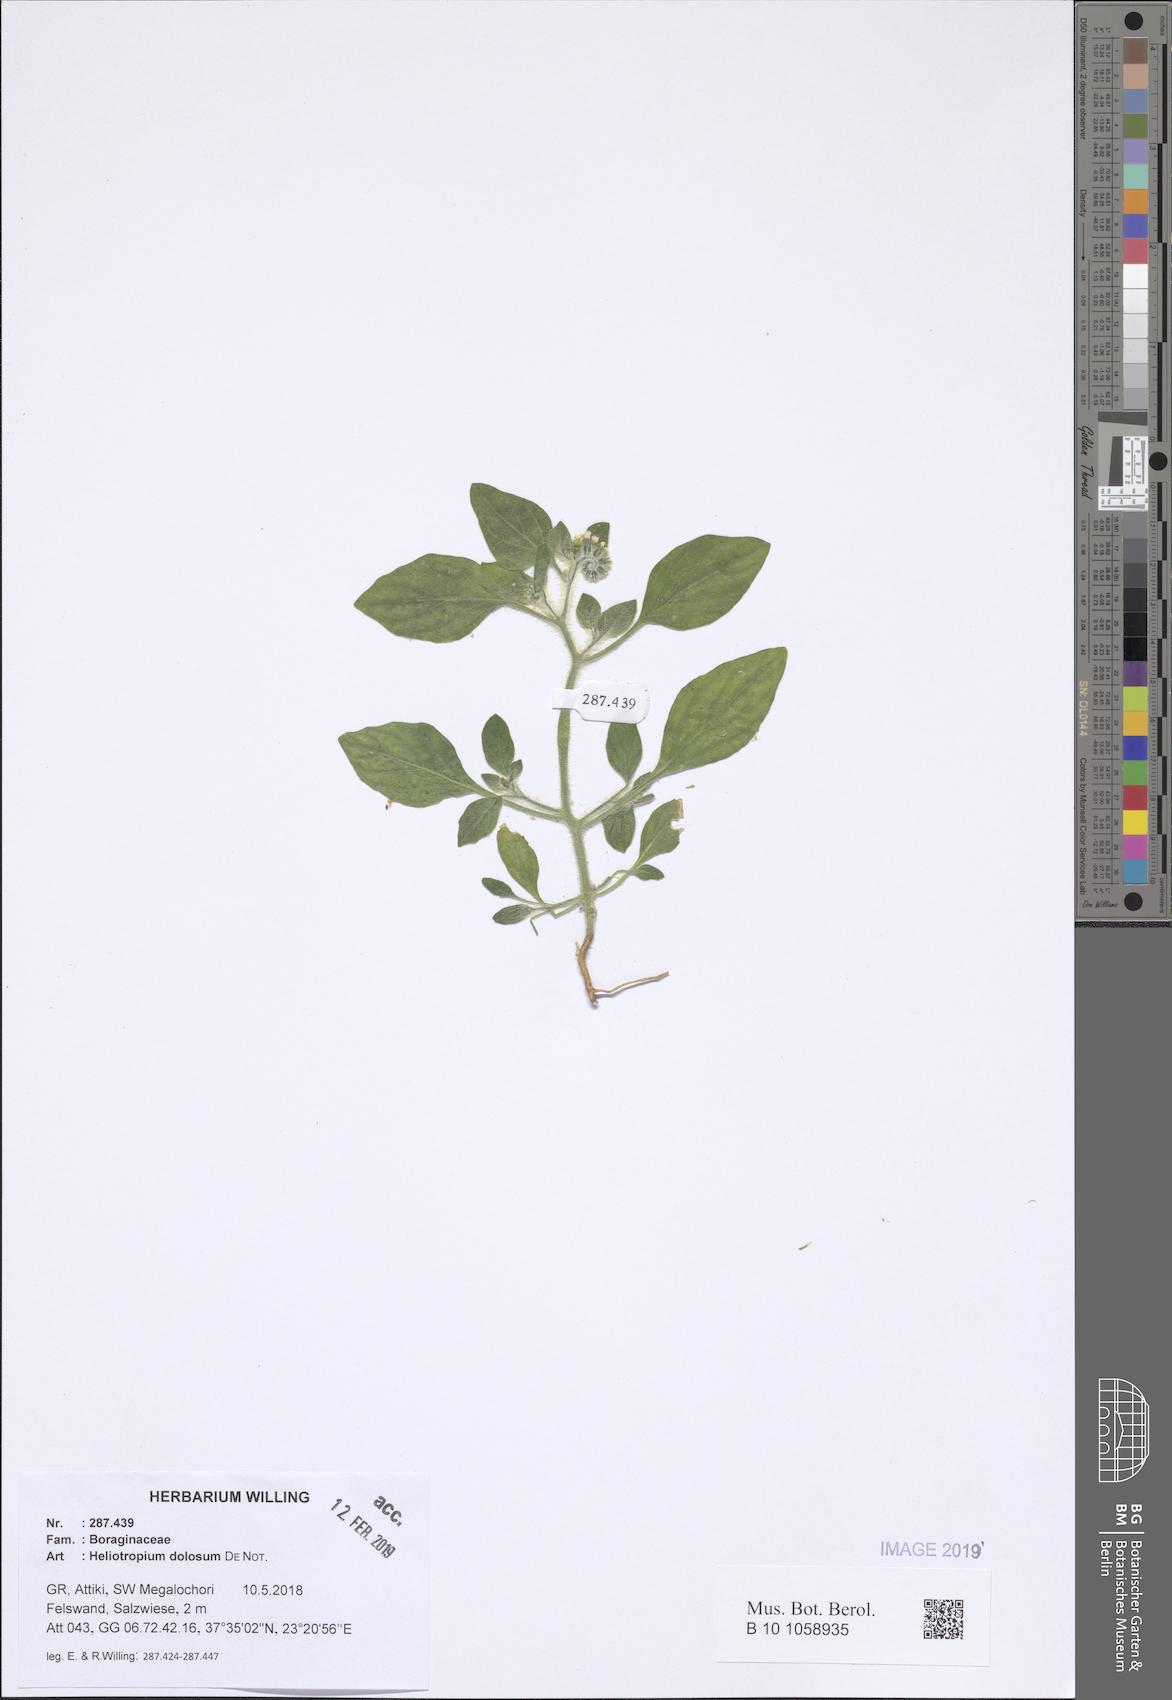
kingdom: Plantae
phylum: Tracheophyta
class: Magnoliopsida
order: Boraginales
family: Heliotropiaceae
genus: Heliotropium
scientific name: Heliotropium dolosum
